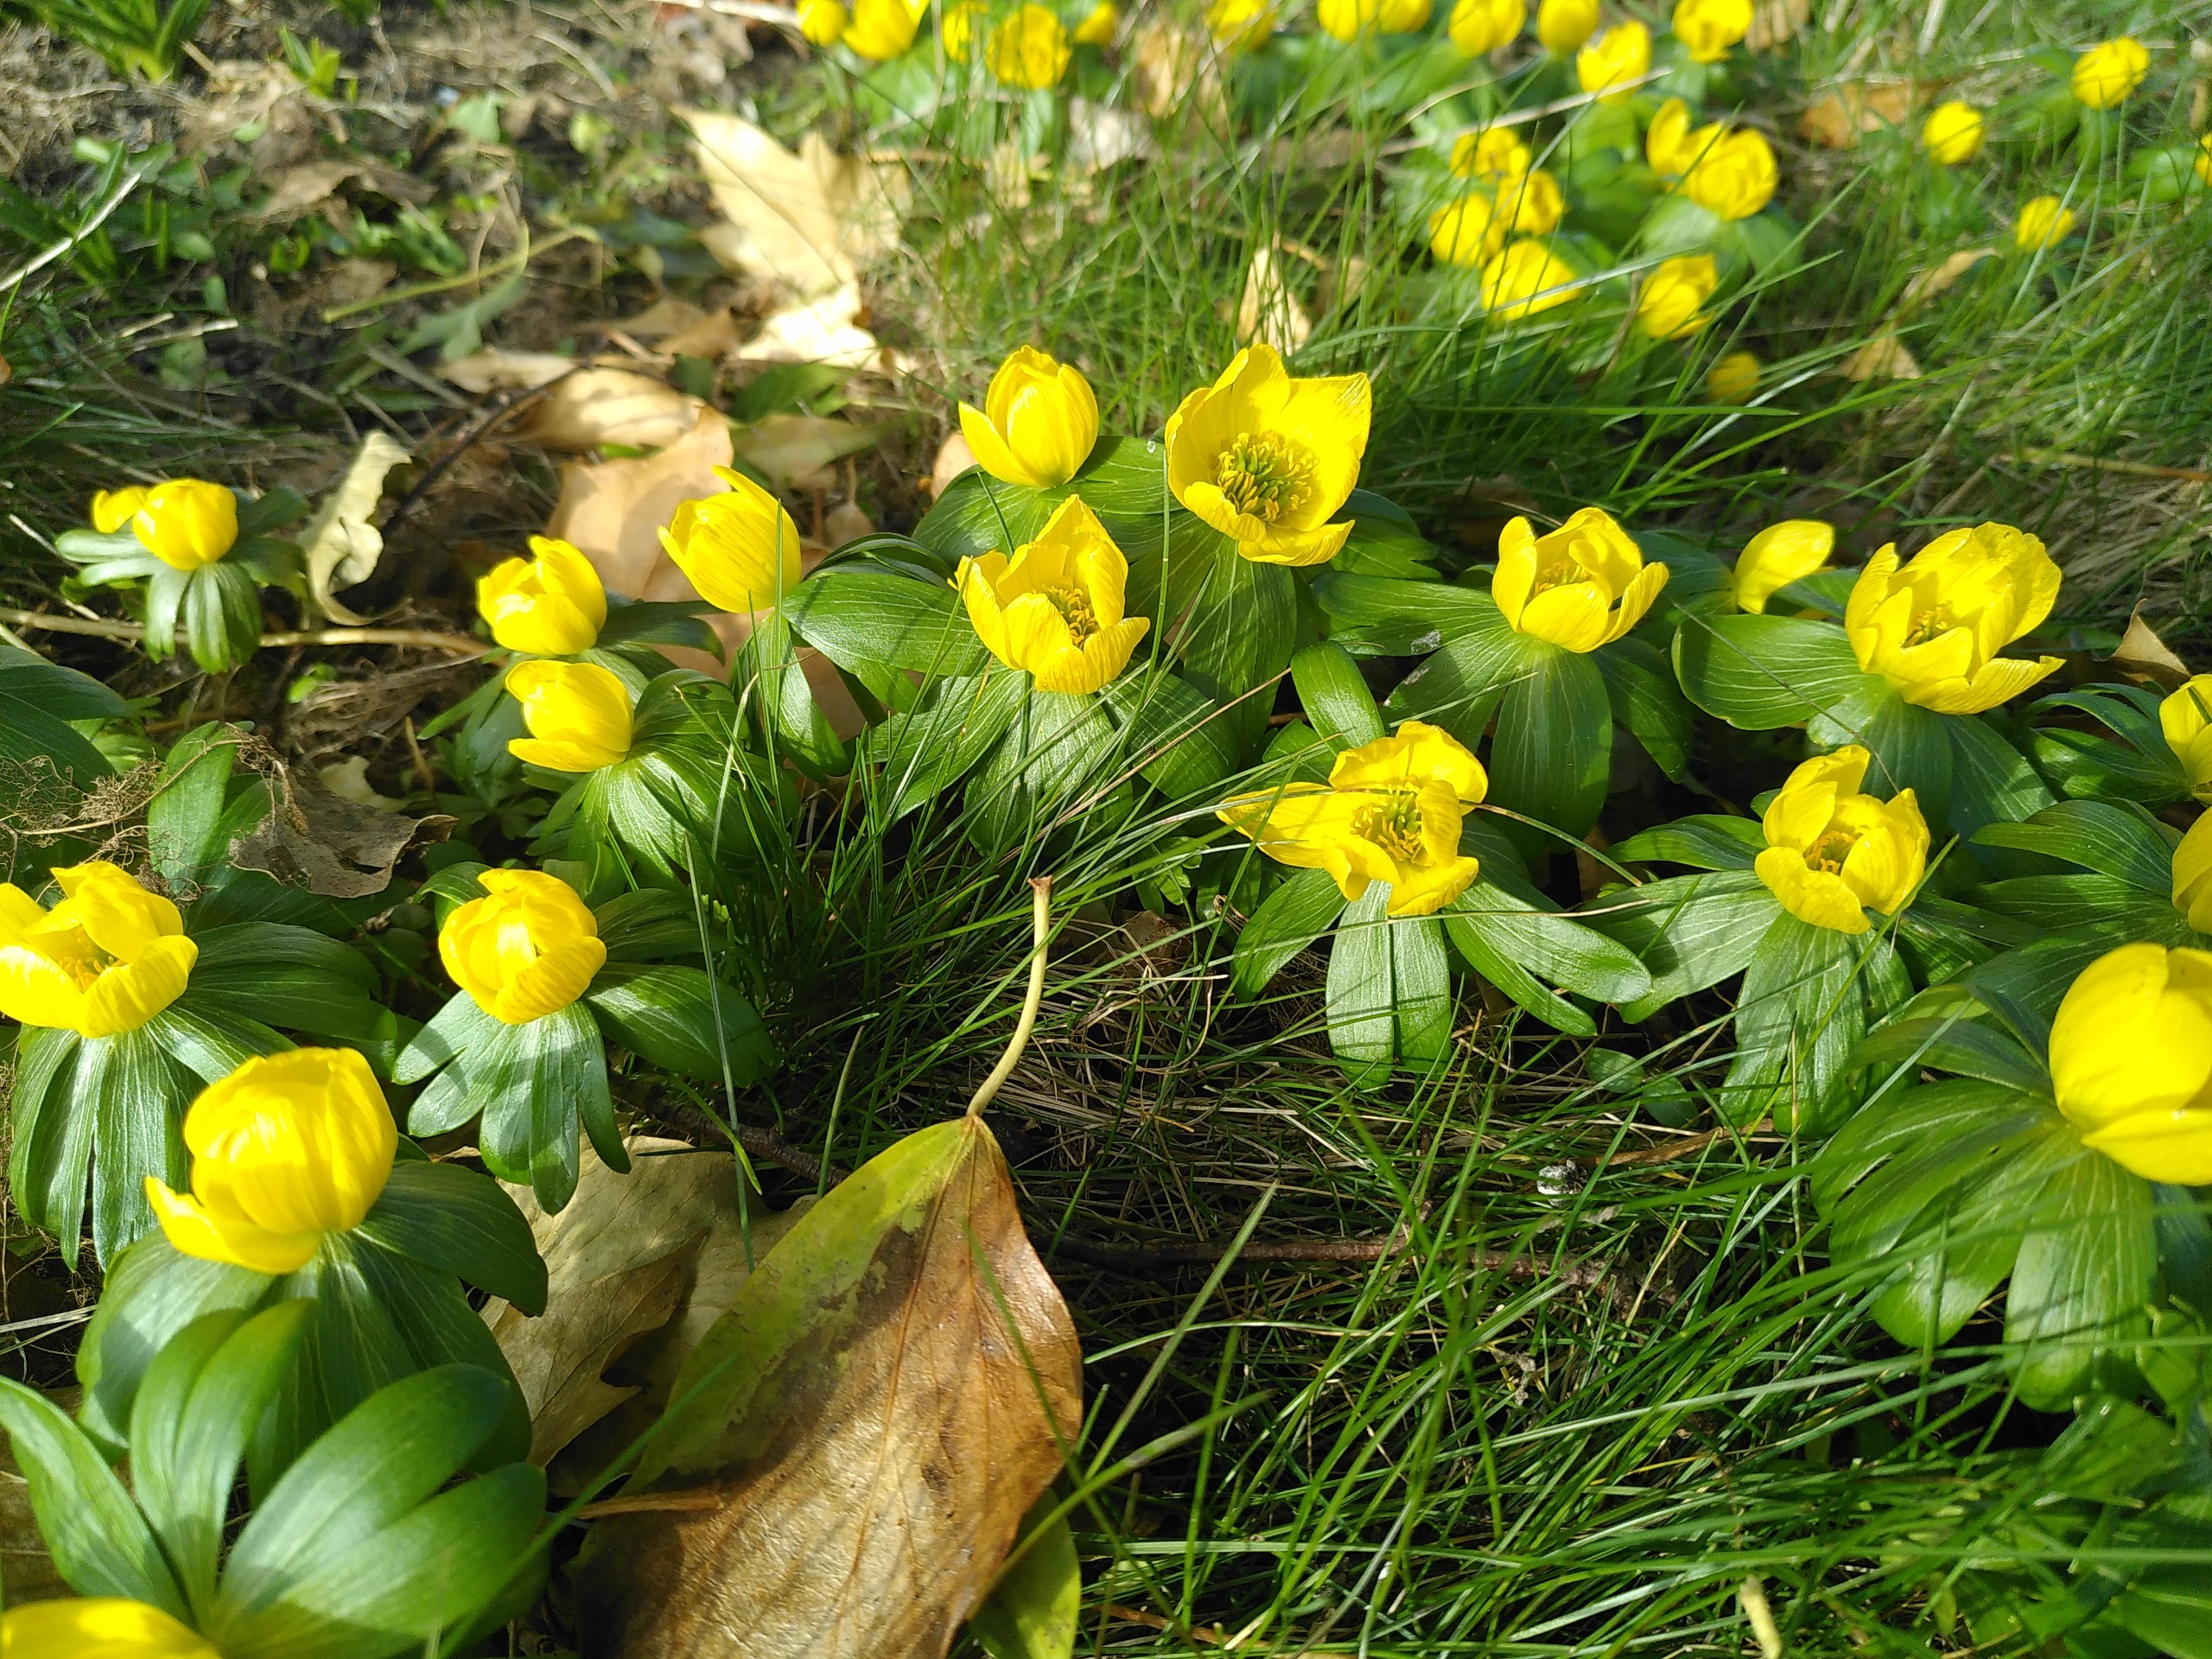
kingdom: Plantae
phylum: Tracheophyta
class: Magnoliopsida
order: Ranunculales
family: Ranunculaceae
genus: Eranthis
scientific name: Eranthis hyemalis
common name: Erantis
